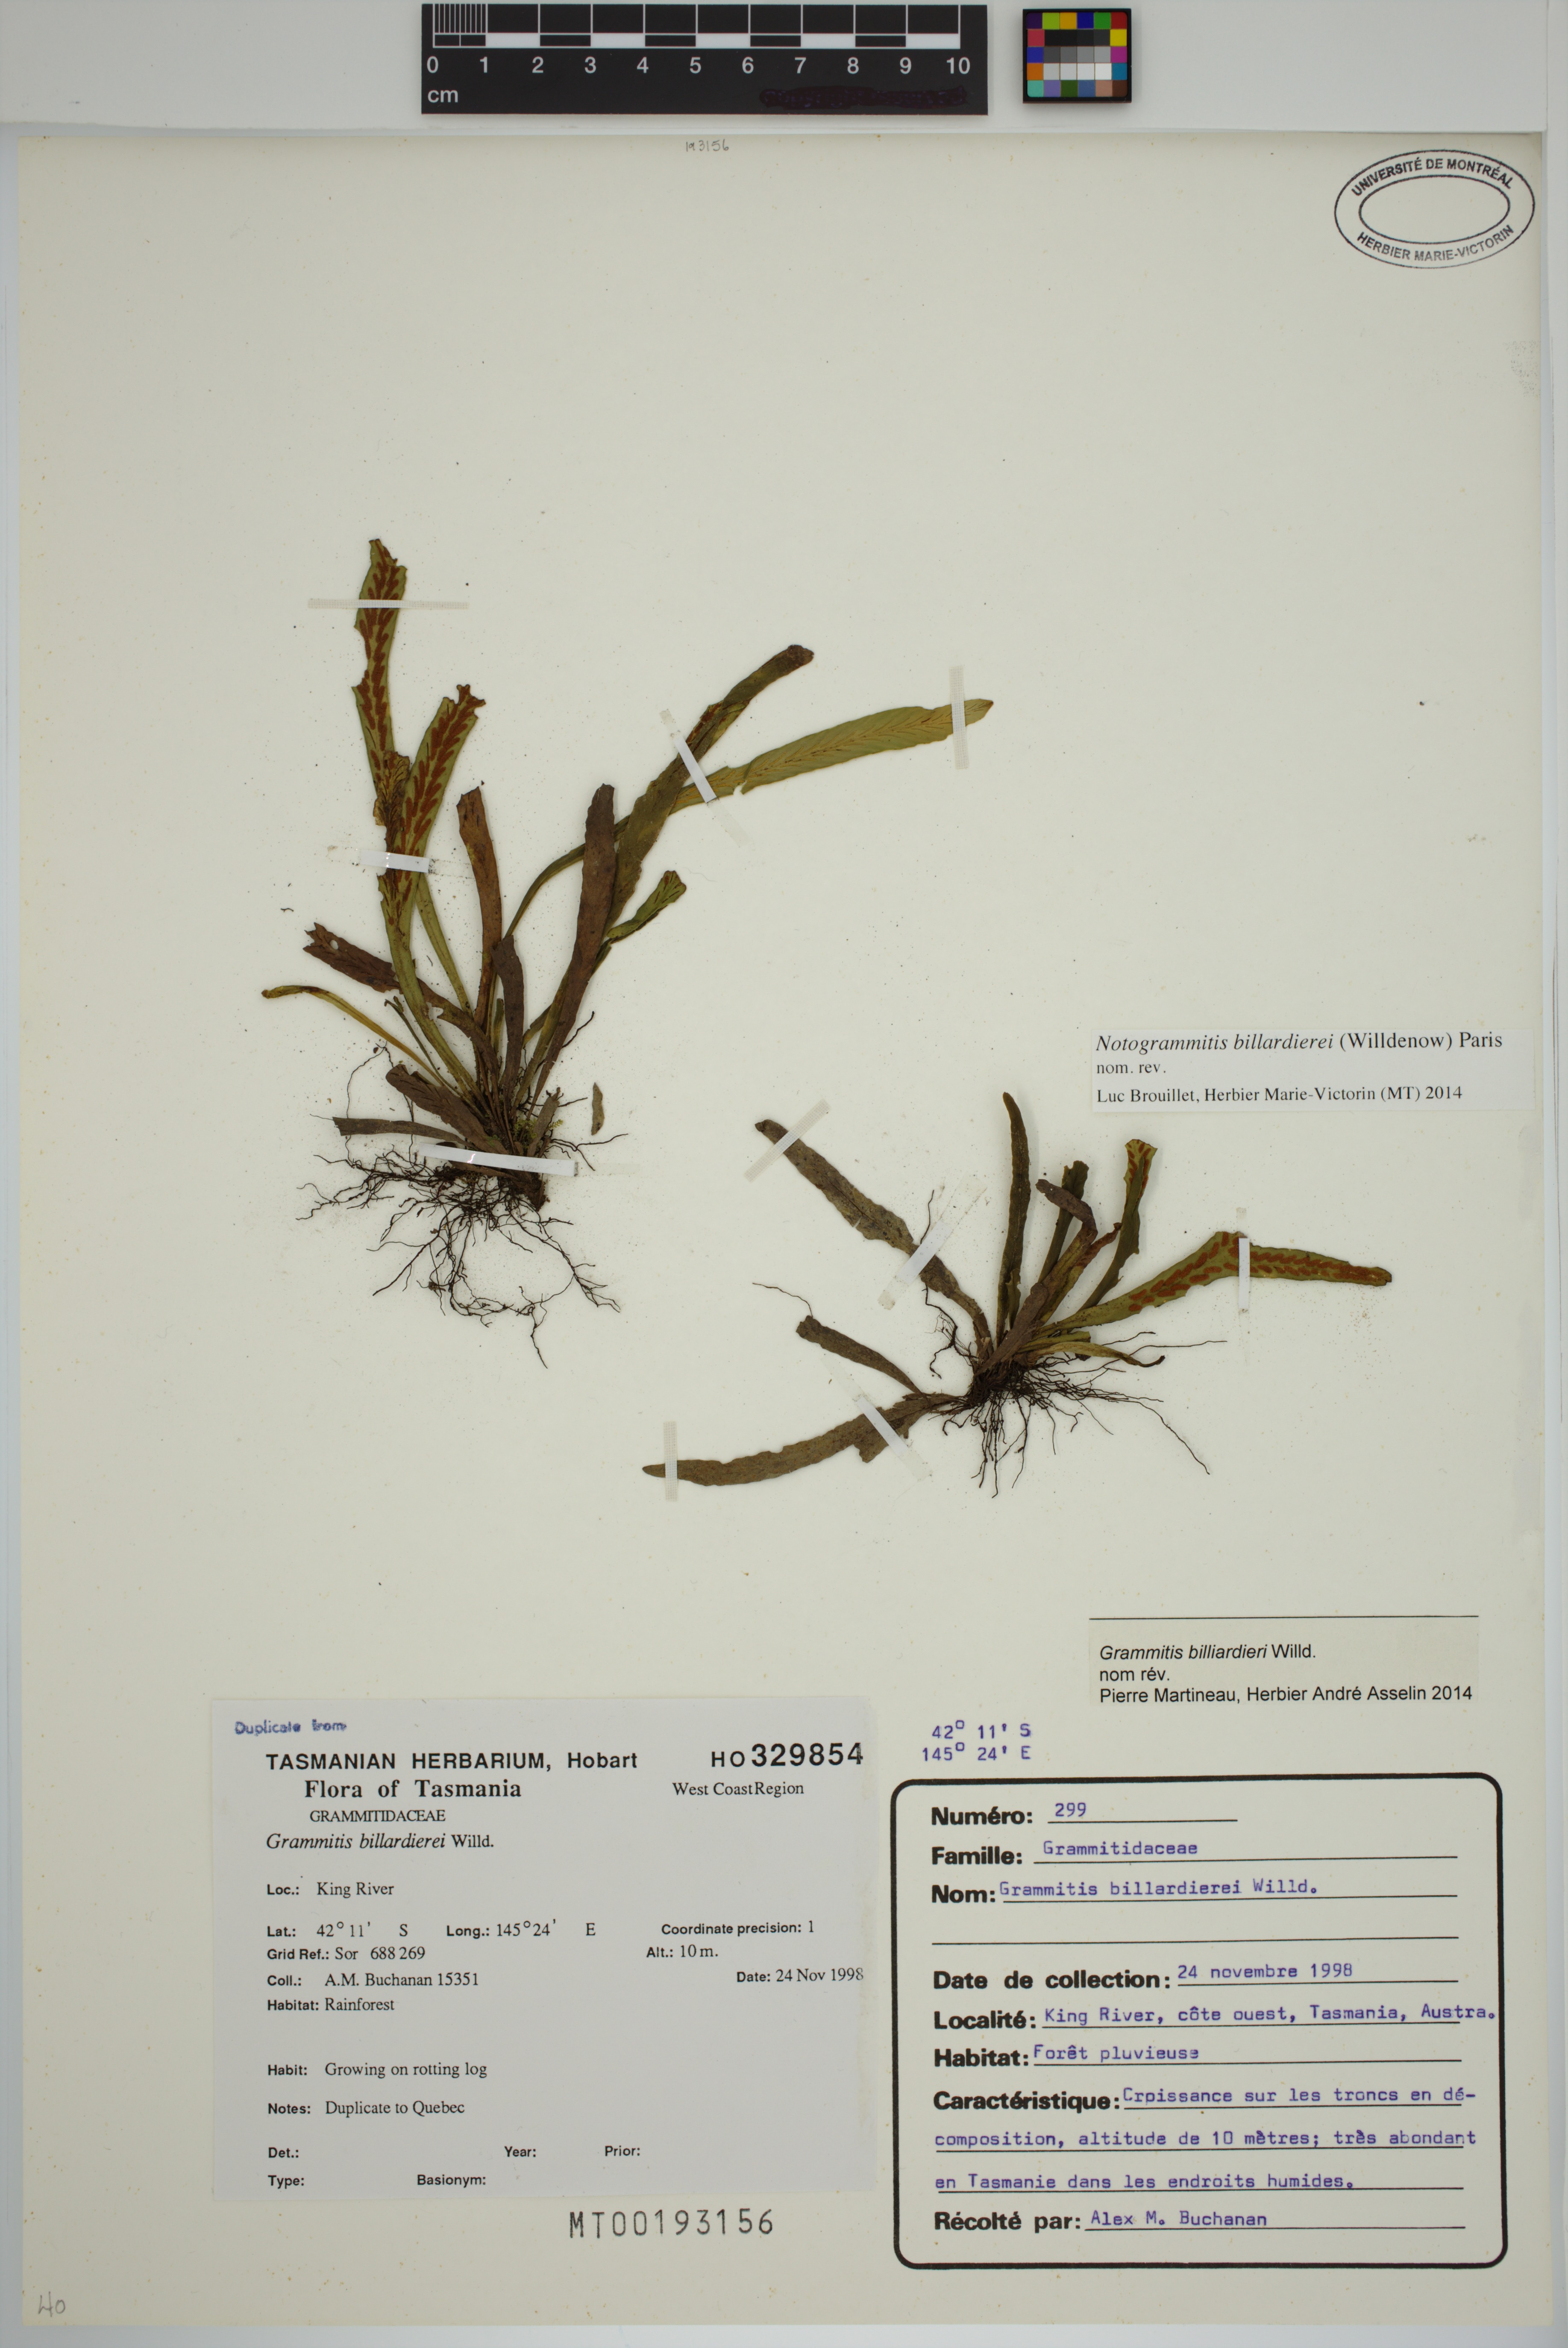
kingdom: Plantae
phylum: Tracheophyta
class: Polypodiopsida
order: Polypodiales
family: Polypodiaceae
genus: Notogrammitis
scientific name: Notogrammitis billardierei
